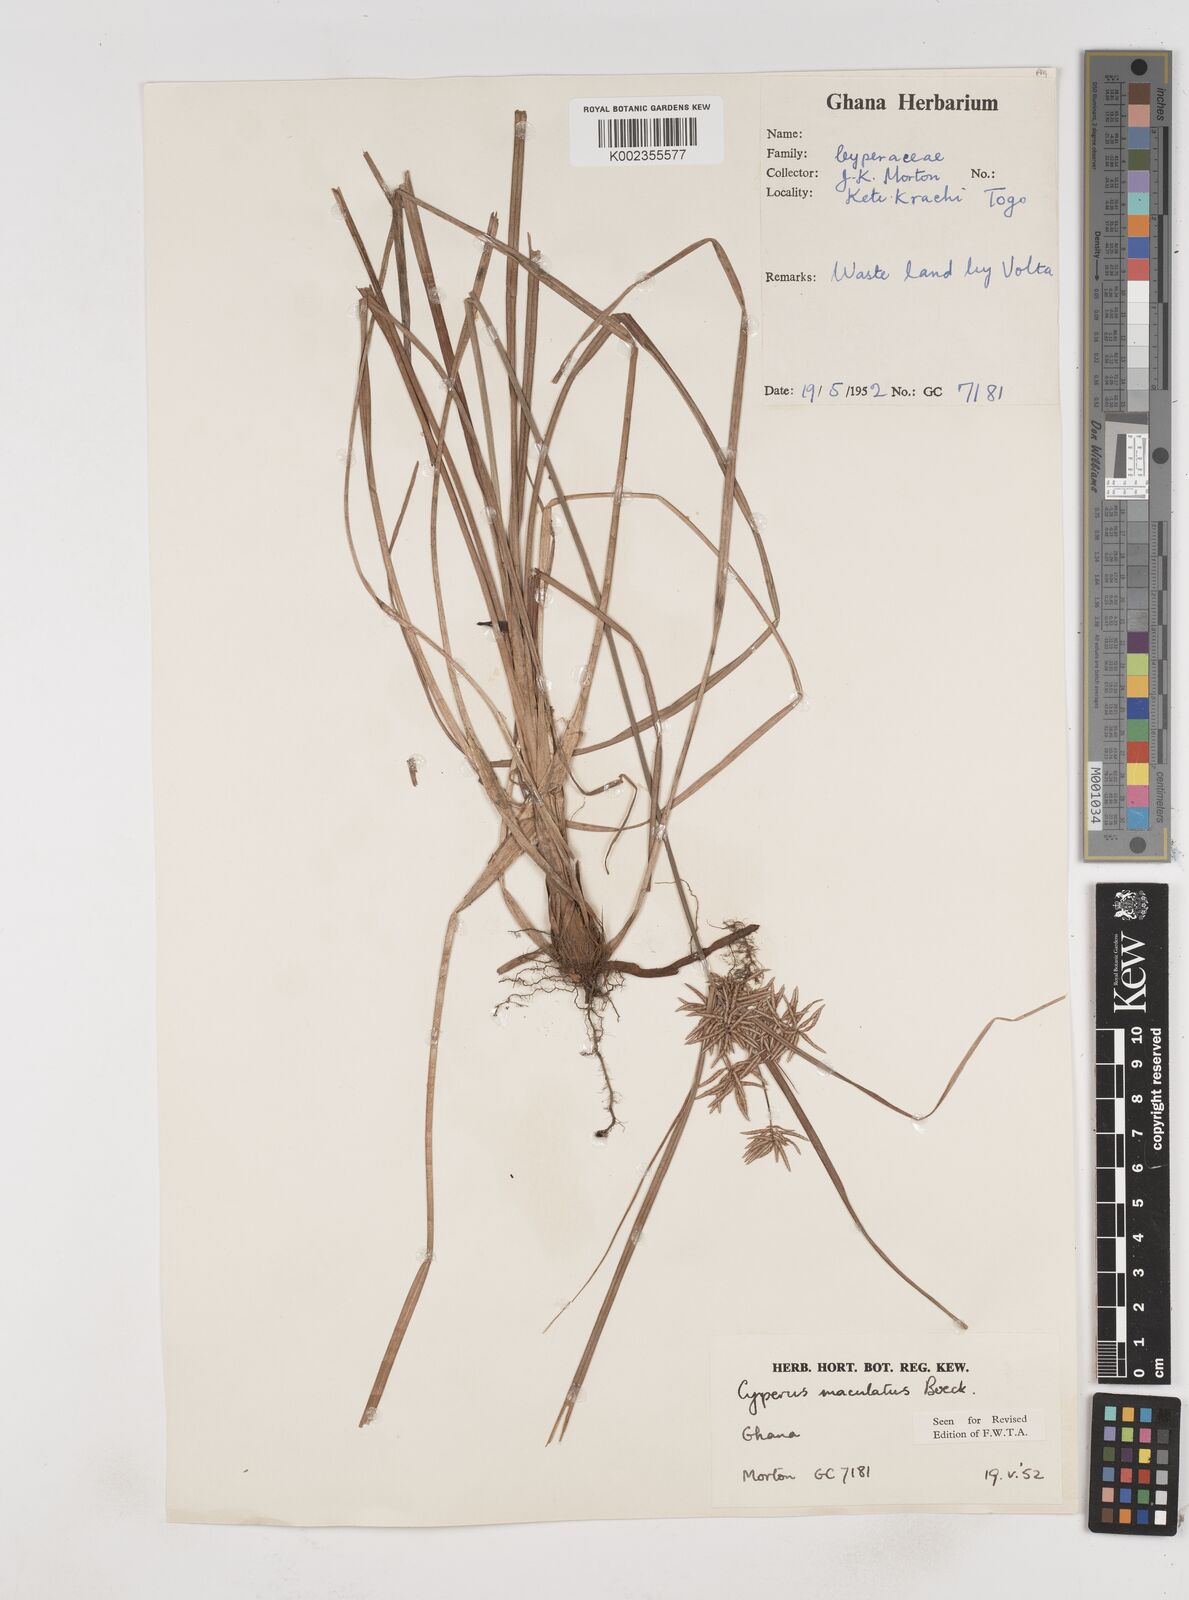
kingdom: Plantae
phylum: Tracheophyta
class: Liliopsida
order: Poales
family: Cyperaceae
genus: Cyperus
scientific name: Cyperus maculatus
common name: Maculated sedge
